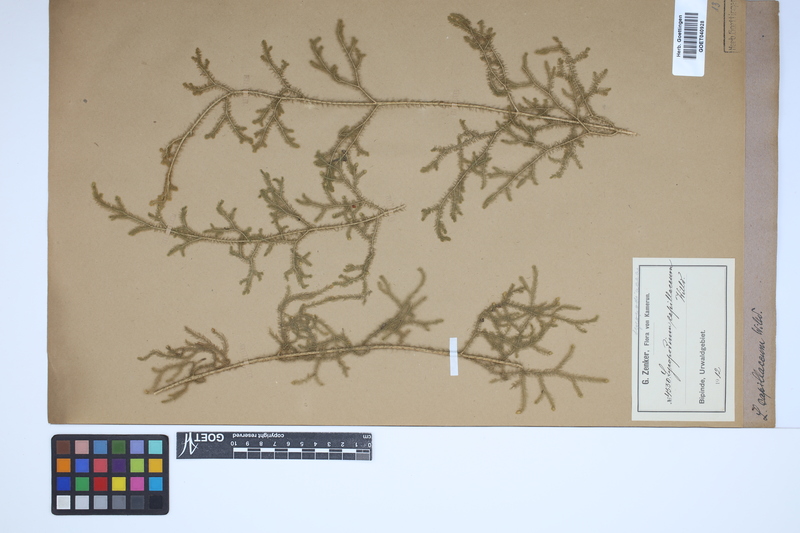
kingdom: Plantae
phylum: Tracheophyta
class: Lycopodiopsida
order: Lycopodiales
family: Lycopodiaceae
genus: Palhinhaea
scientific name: Palhinhaea cernua
